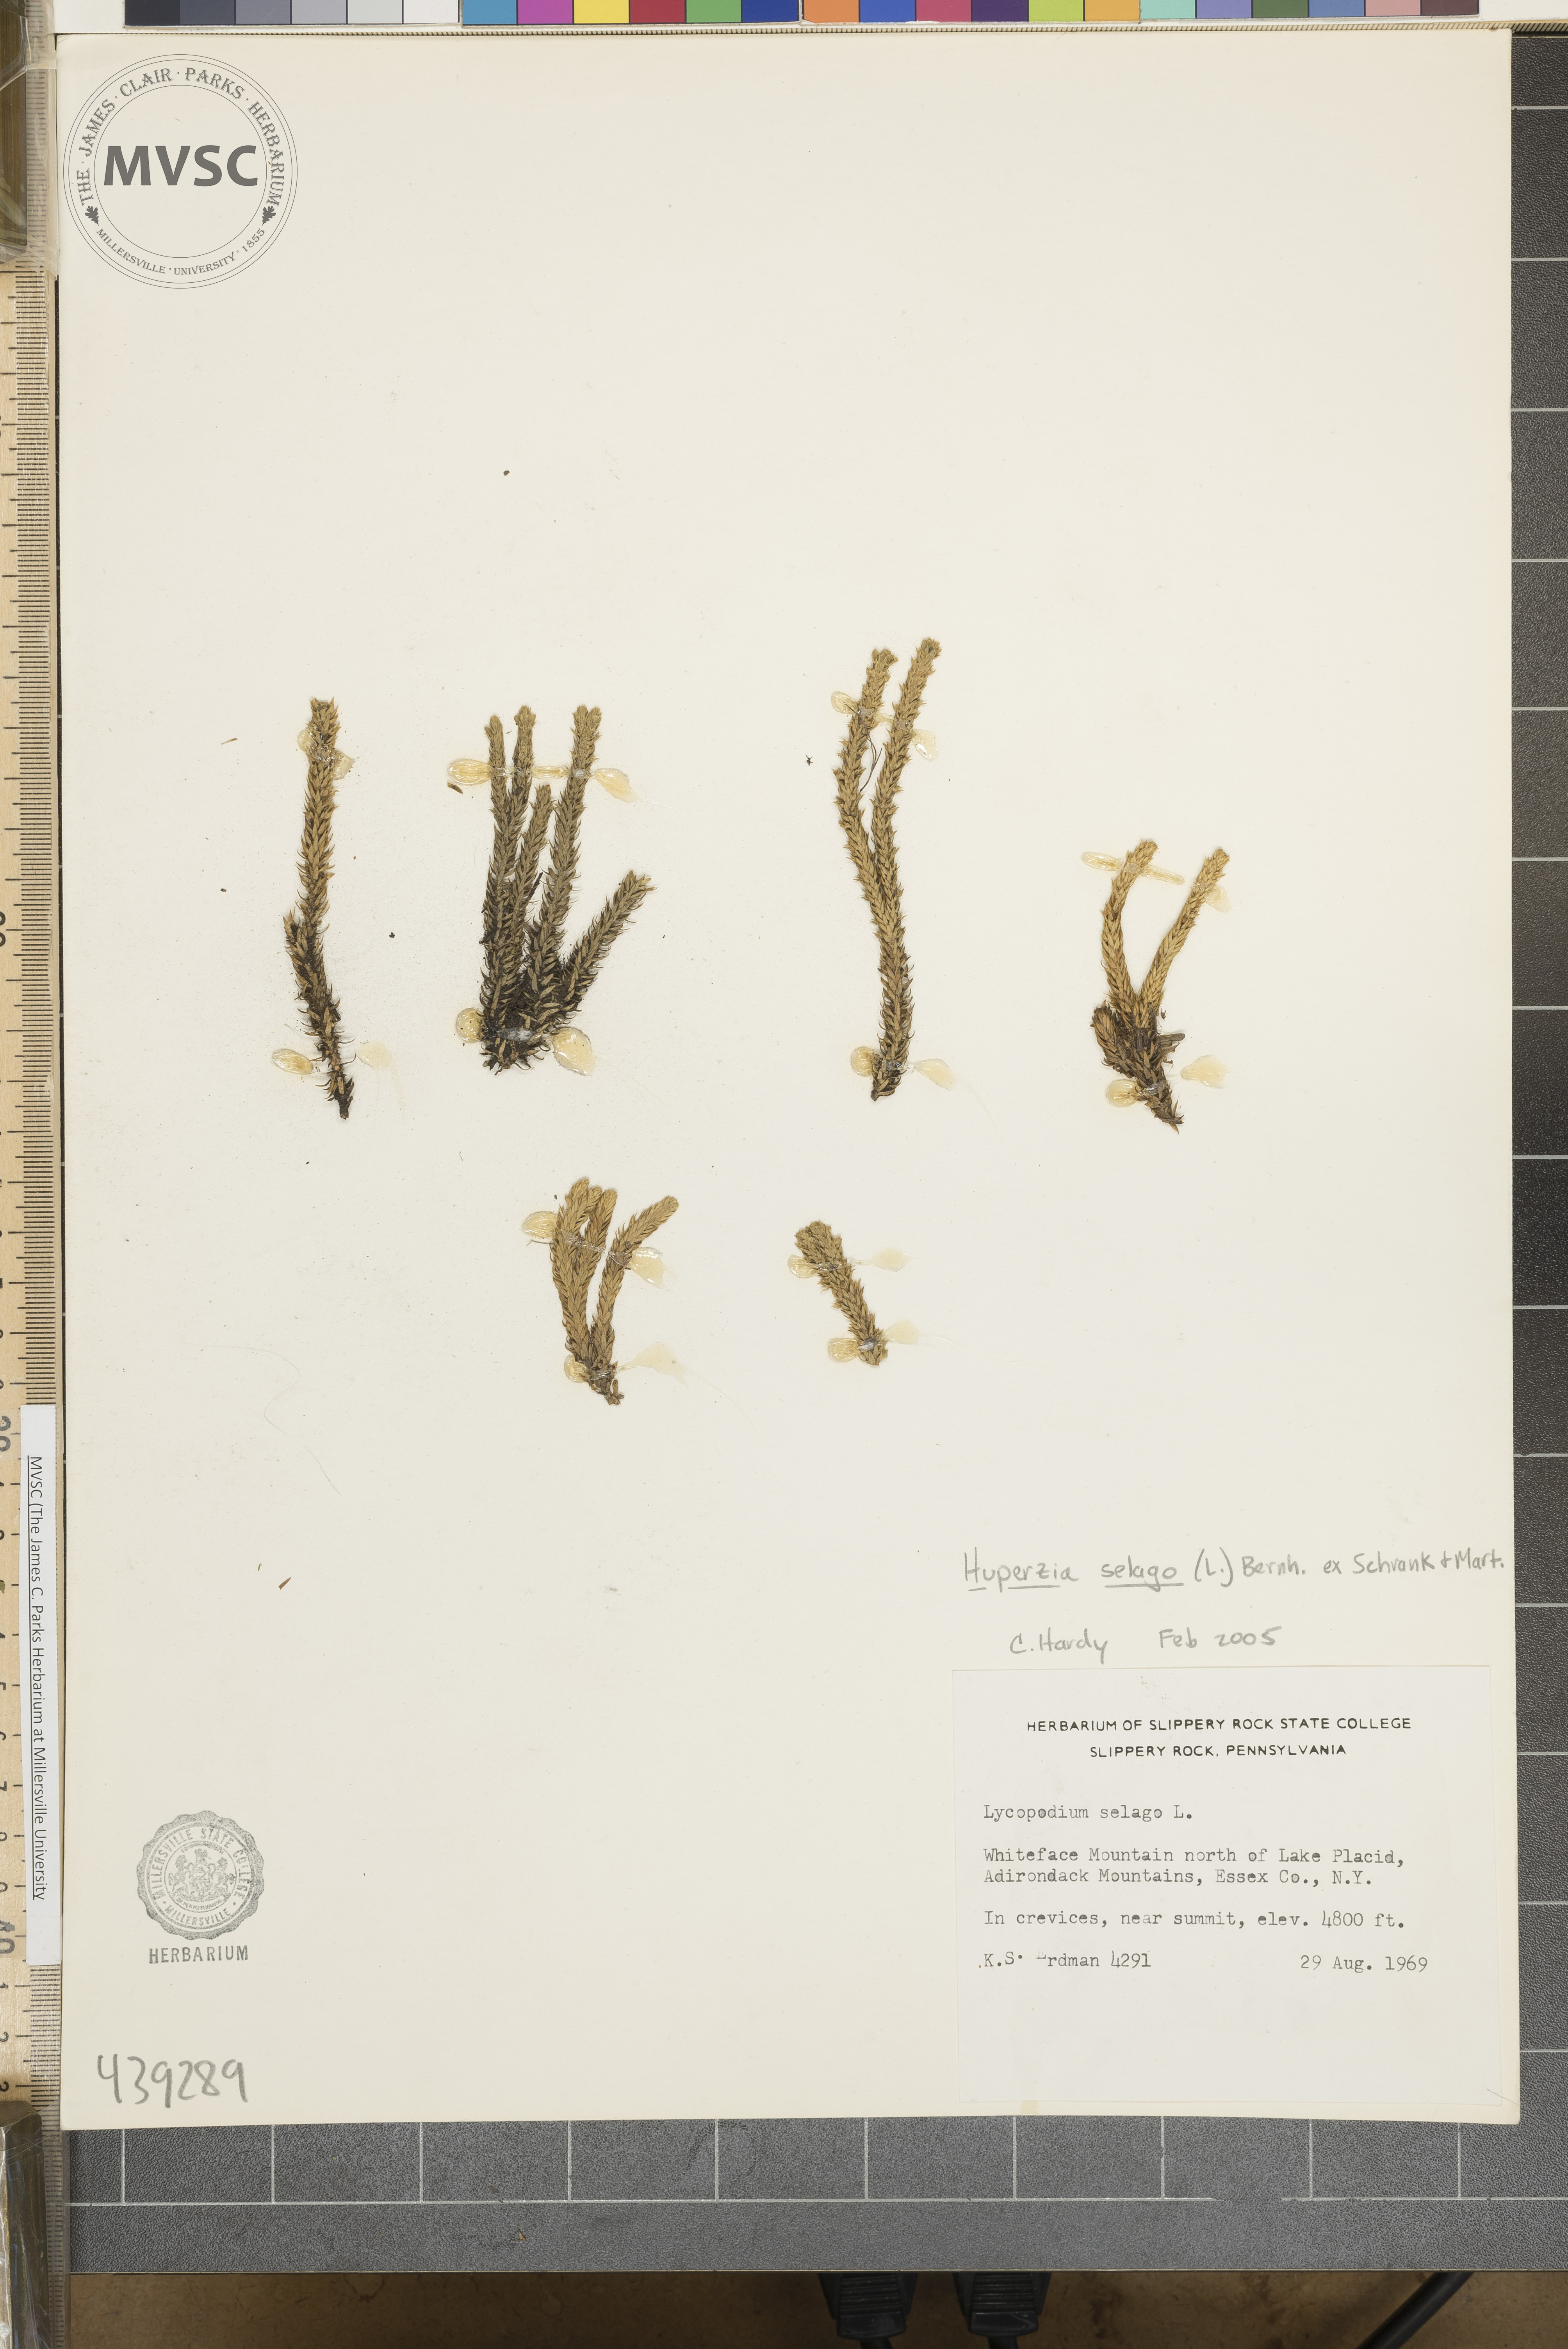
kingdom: Plantae
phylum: Tracheophyta
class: Lycopodiopsida
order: Lycopodiales
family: Lycopodiaceae
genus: Huperzia
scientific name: Huperzia selago
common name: Northern firmoss
